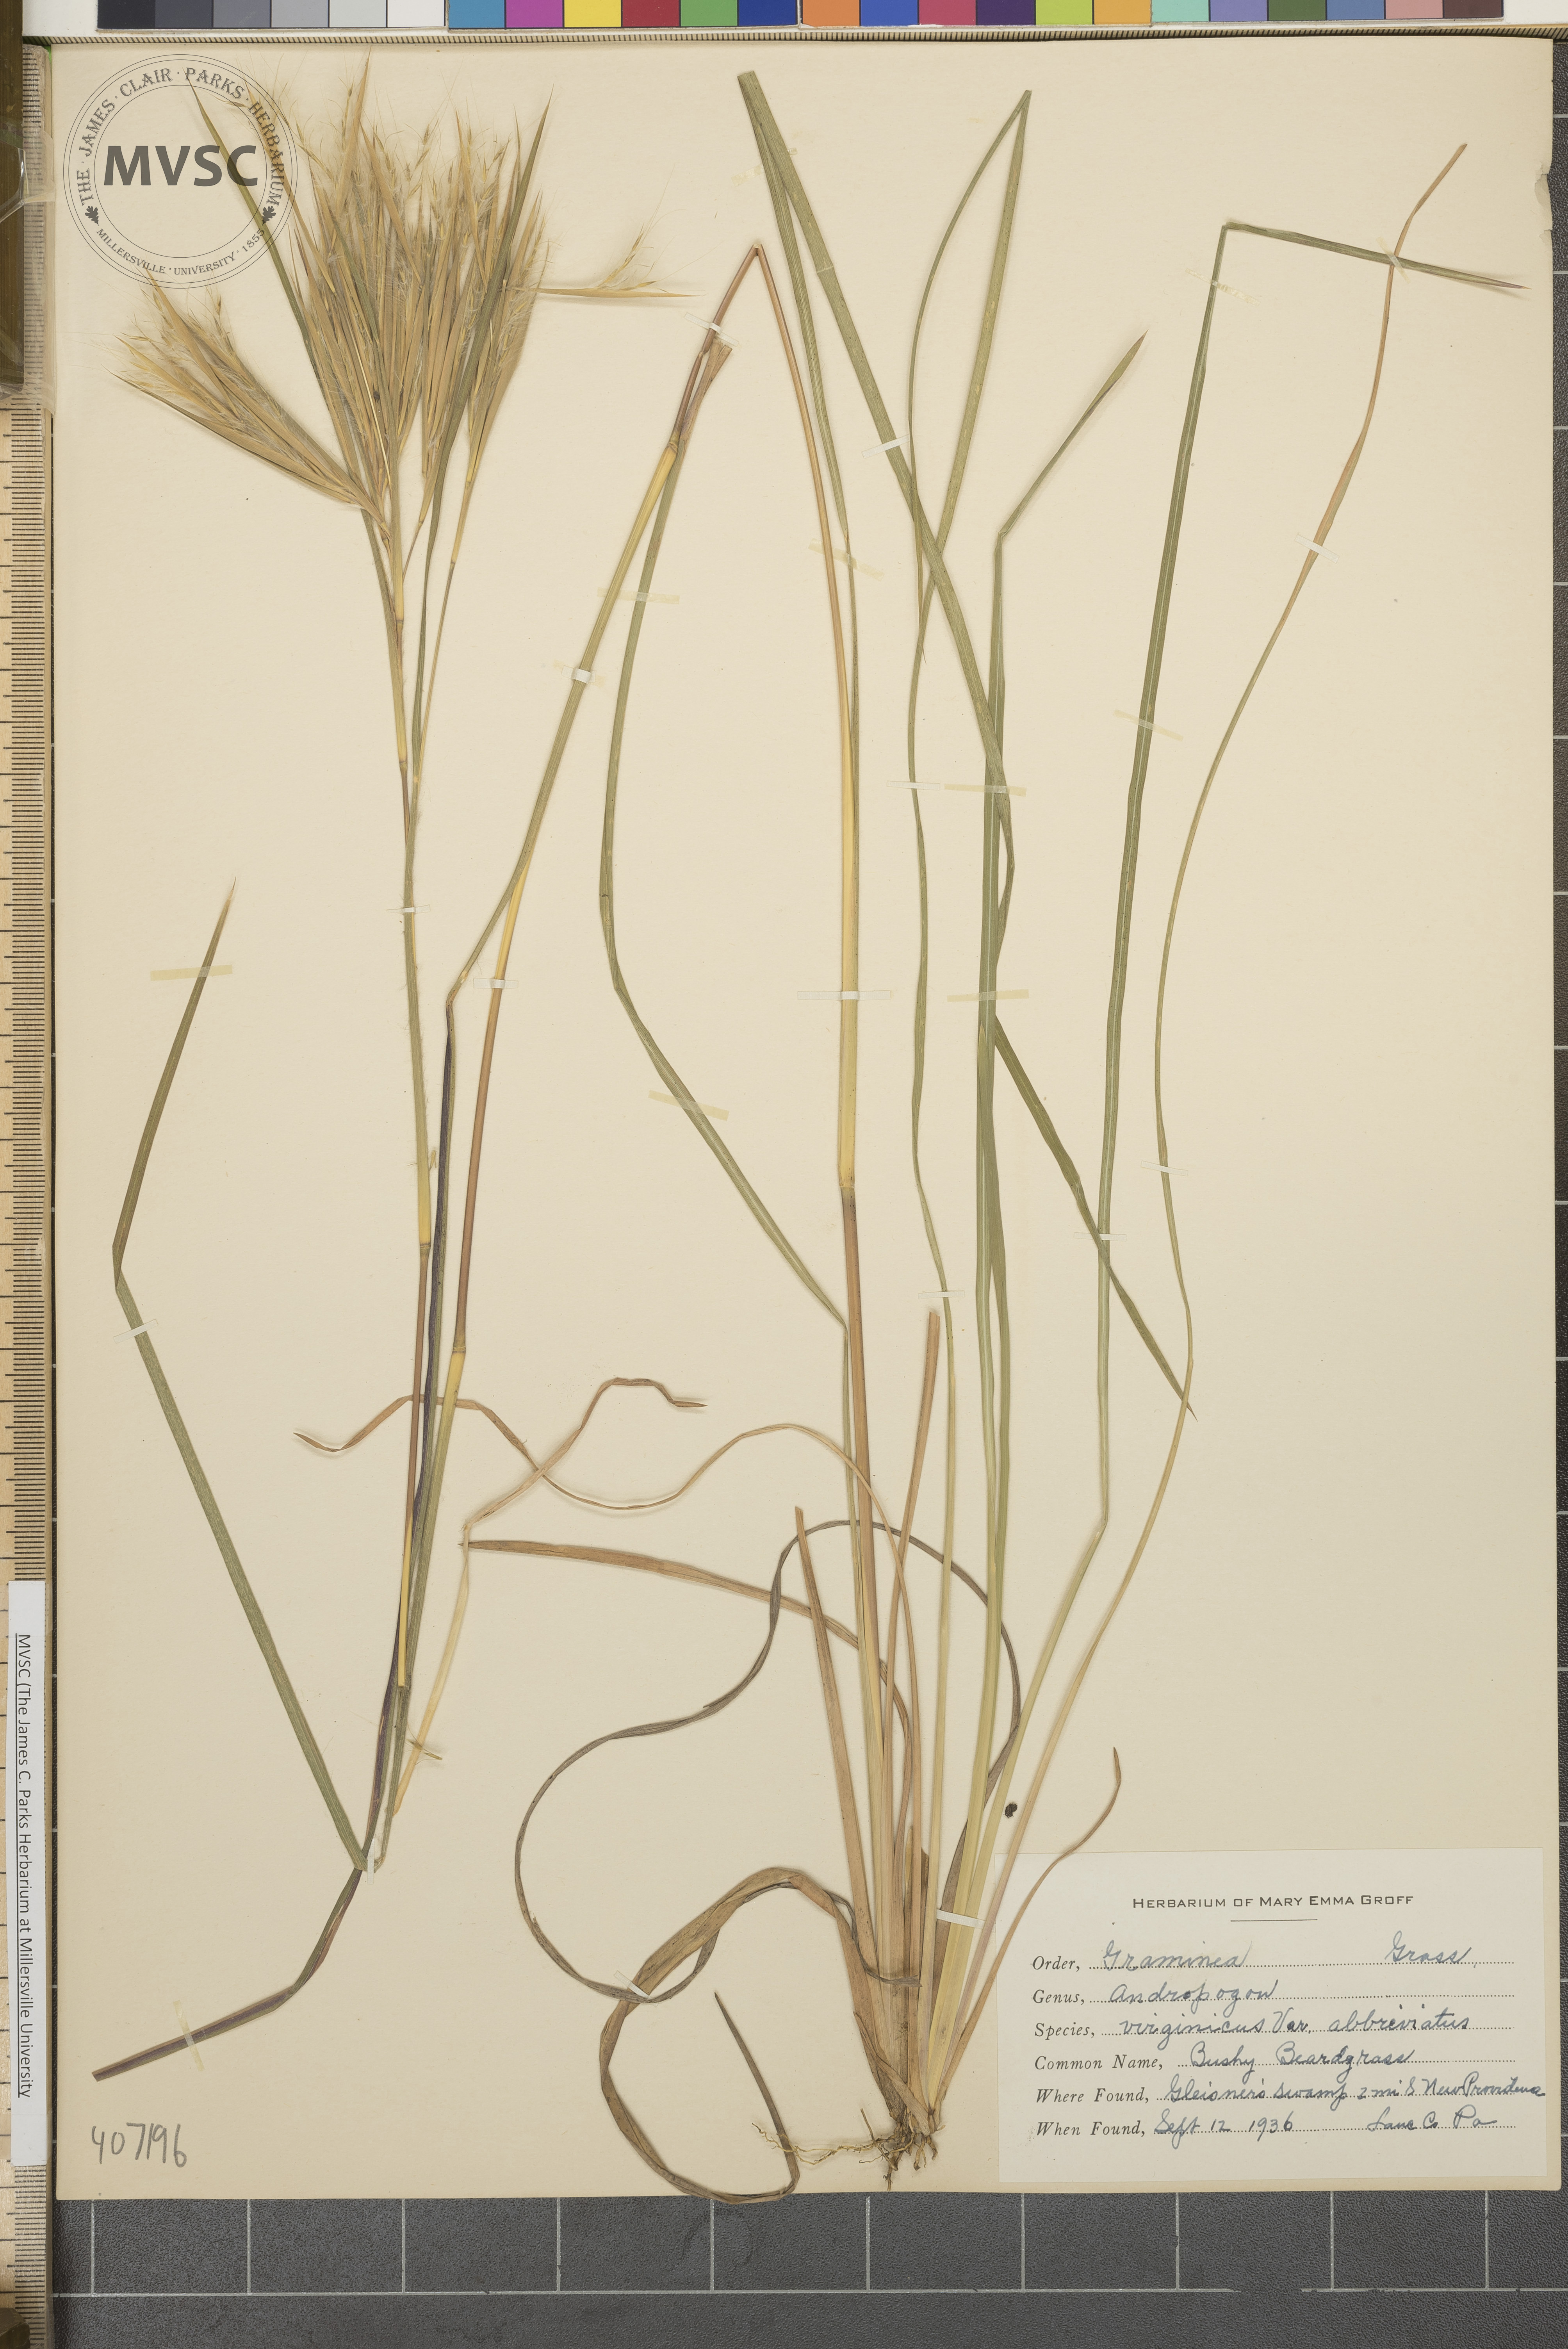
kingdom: Plantae
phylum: Tracheophyta
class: Liliopsida
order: Poales
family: Poaceae
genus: Andropogon
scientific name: Andropogon virginicus
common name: Broomsedge bluestem
